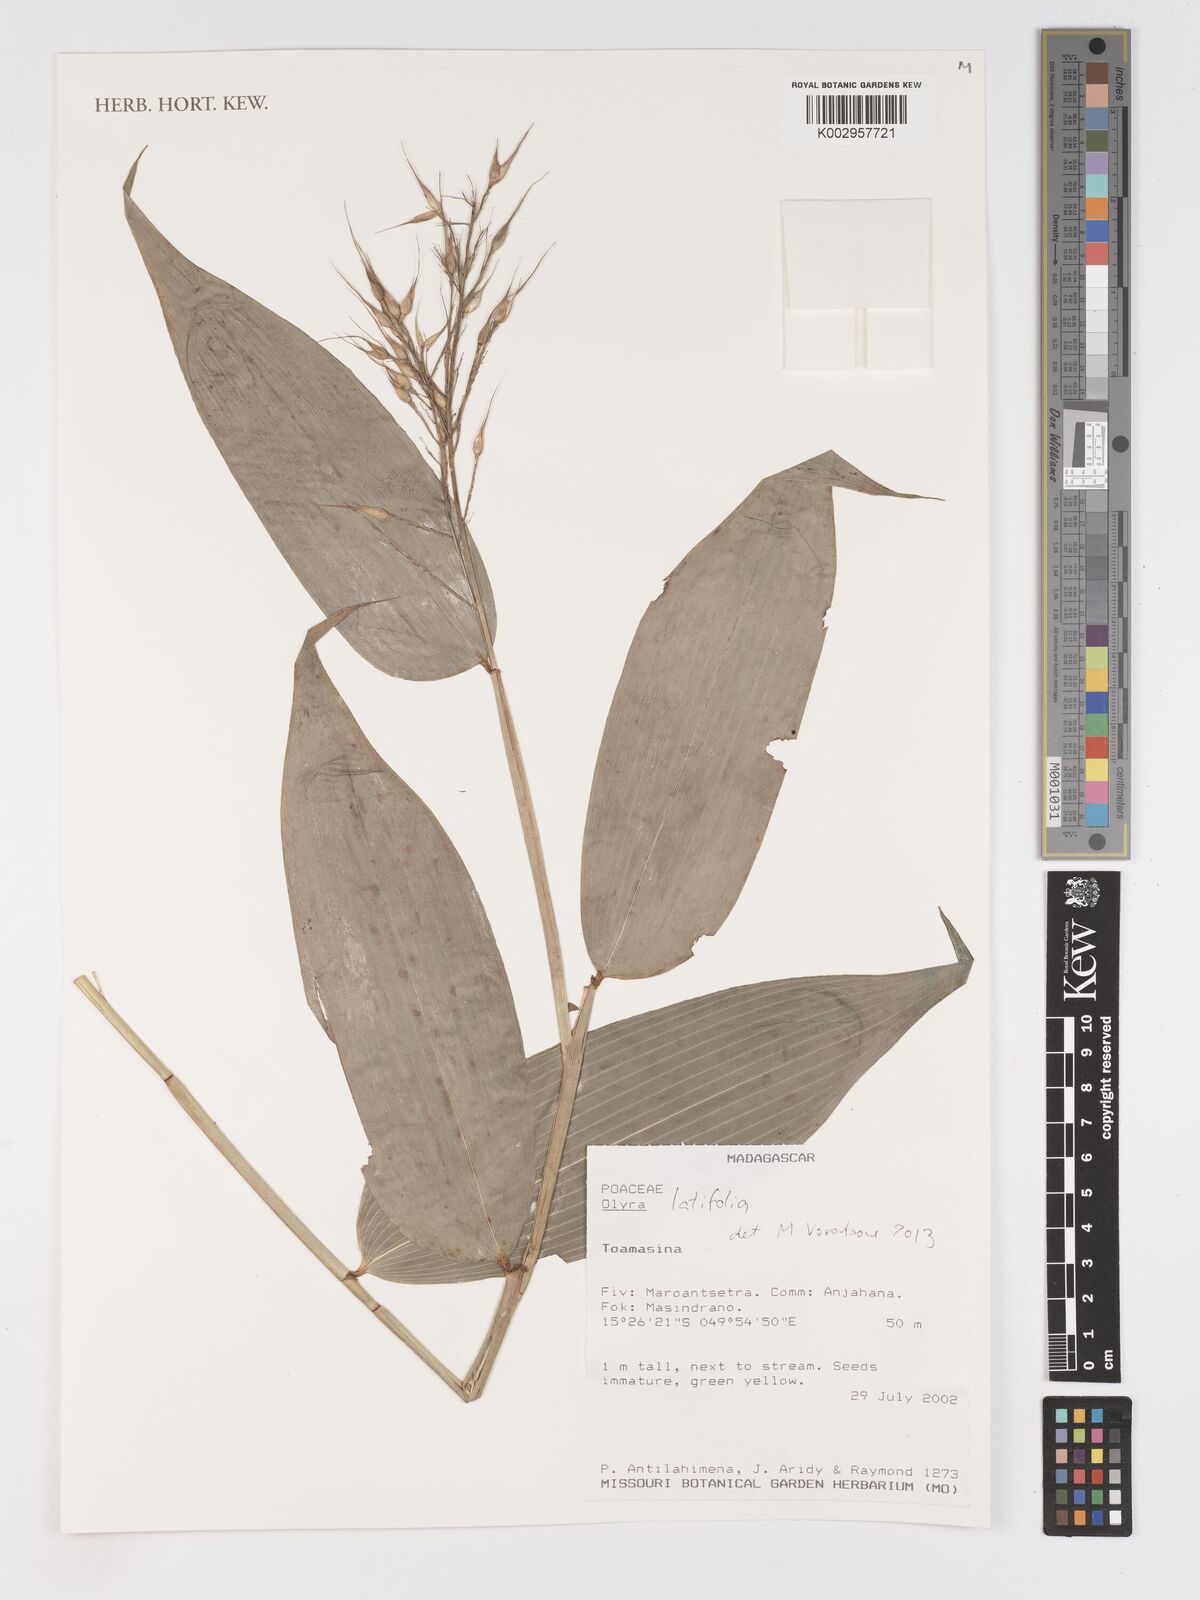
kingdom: Plantae
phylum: Tracheophyta
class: Liliopsida
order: Poales
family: Poaceae
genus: Olyra
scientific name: Olyra latifolia
